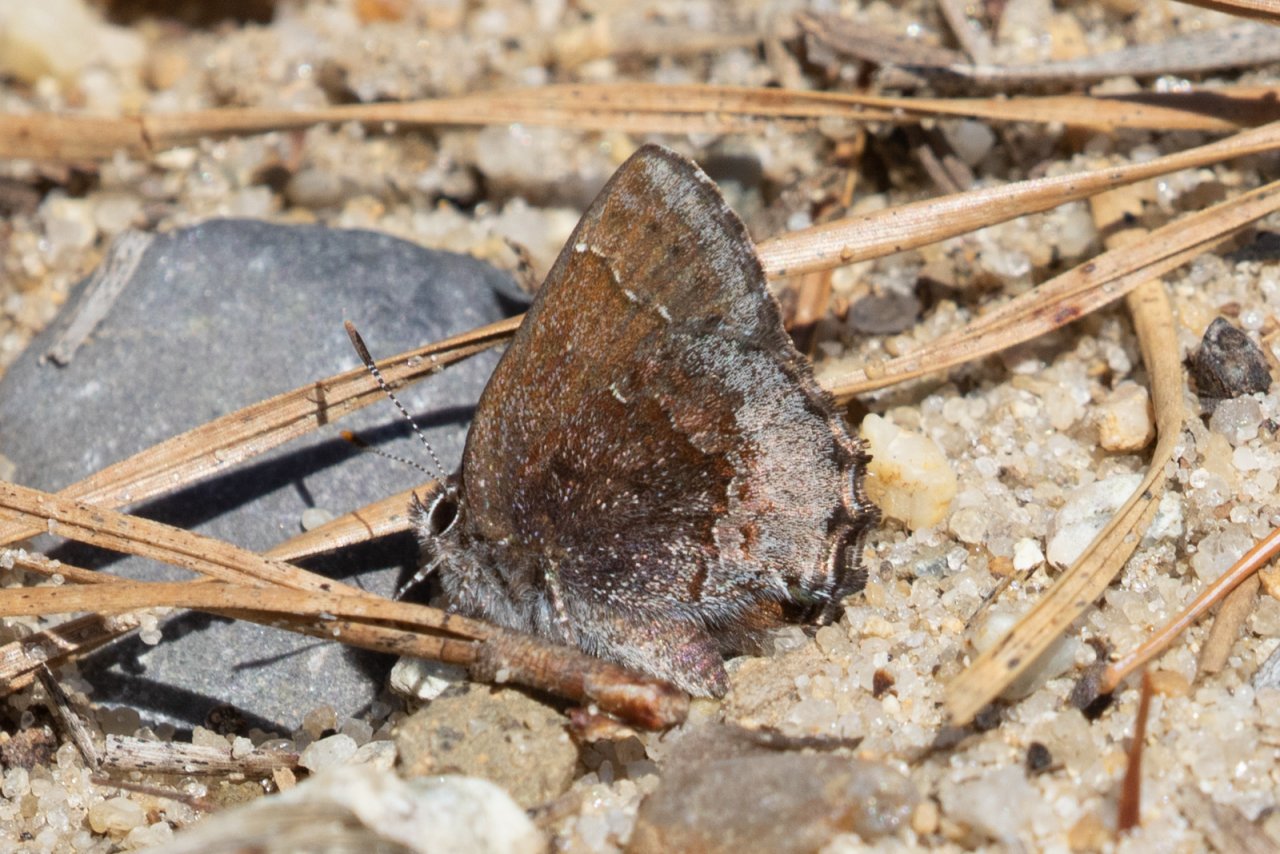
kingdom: Animalia
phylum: Arthropoda
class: Insecta
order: Lepidoptera
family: Lycaenidae
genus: Callophrys
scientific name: Callophrys polios
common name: Hoary Elfin
